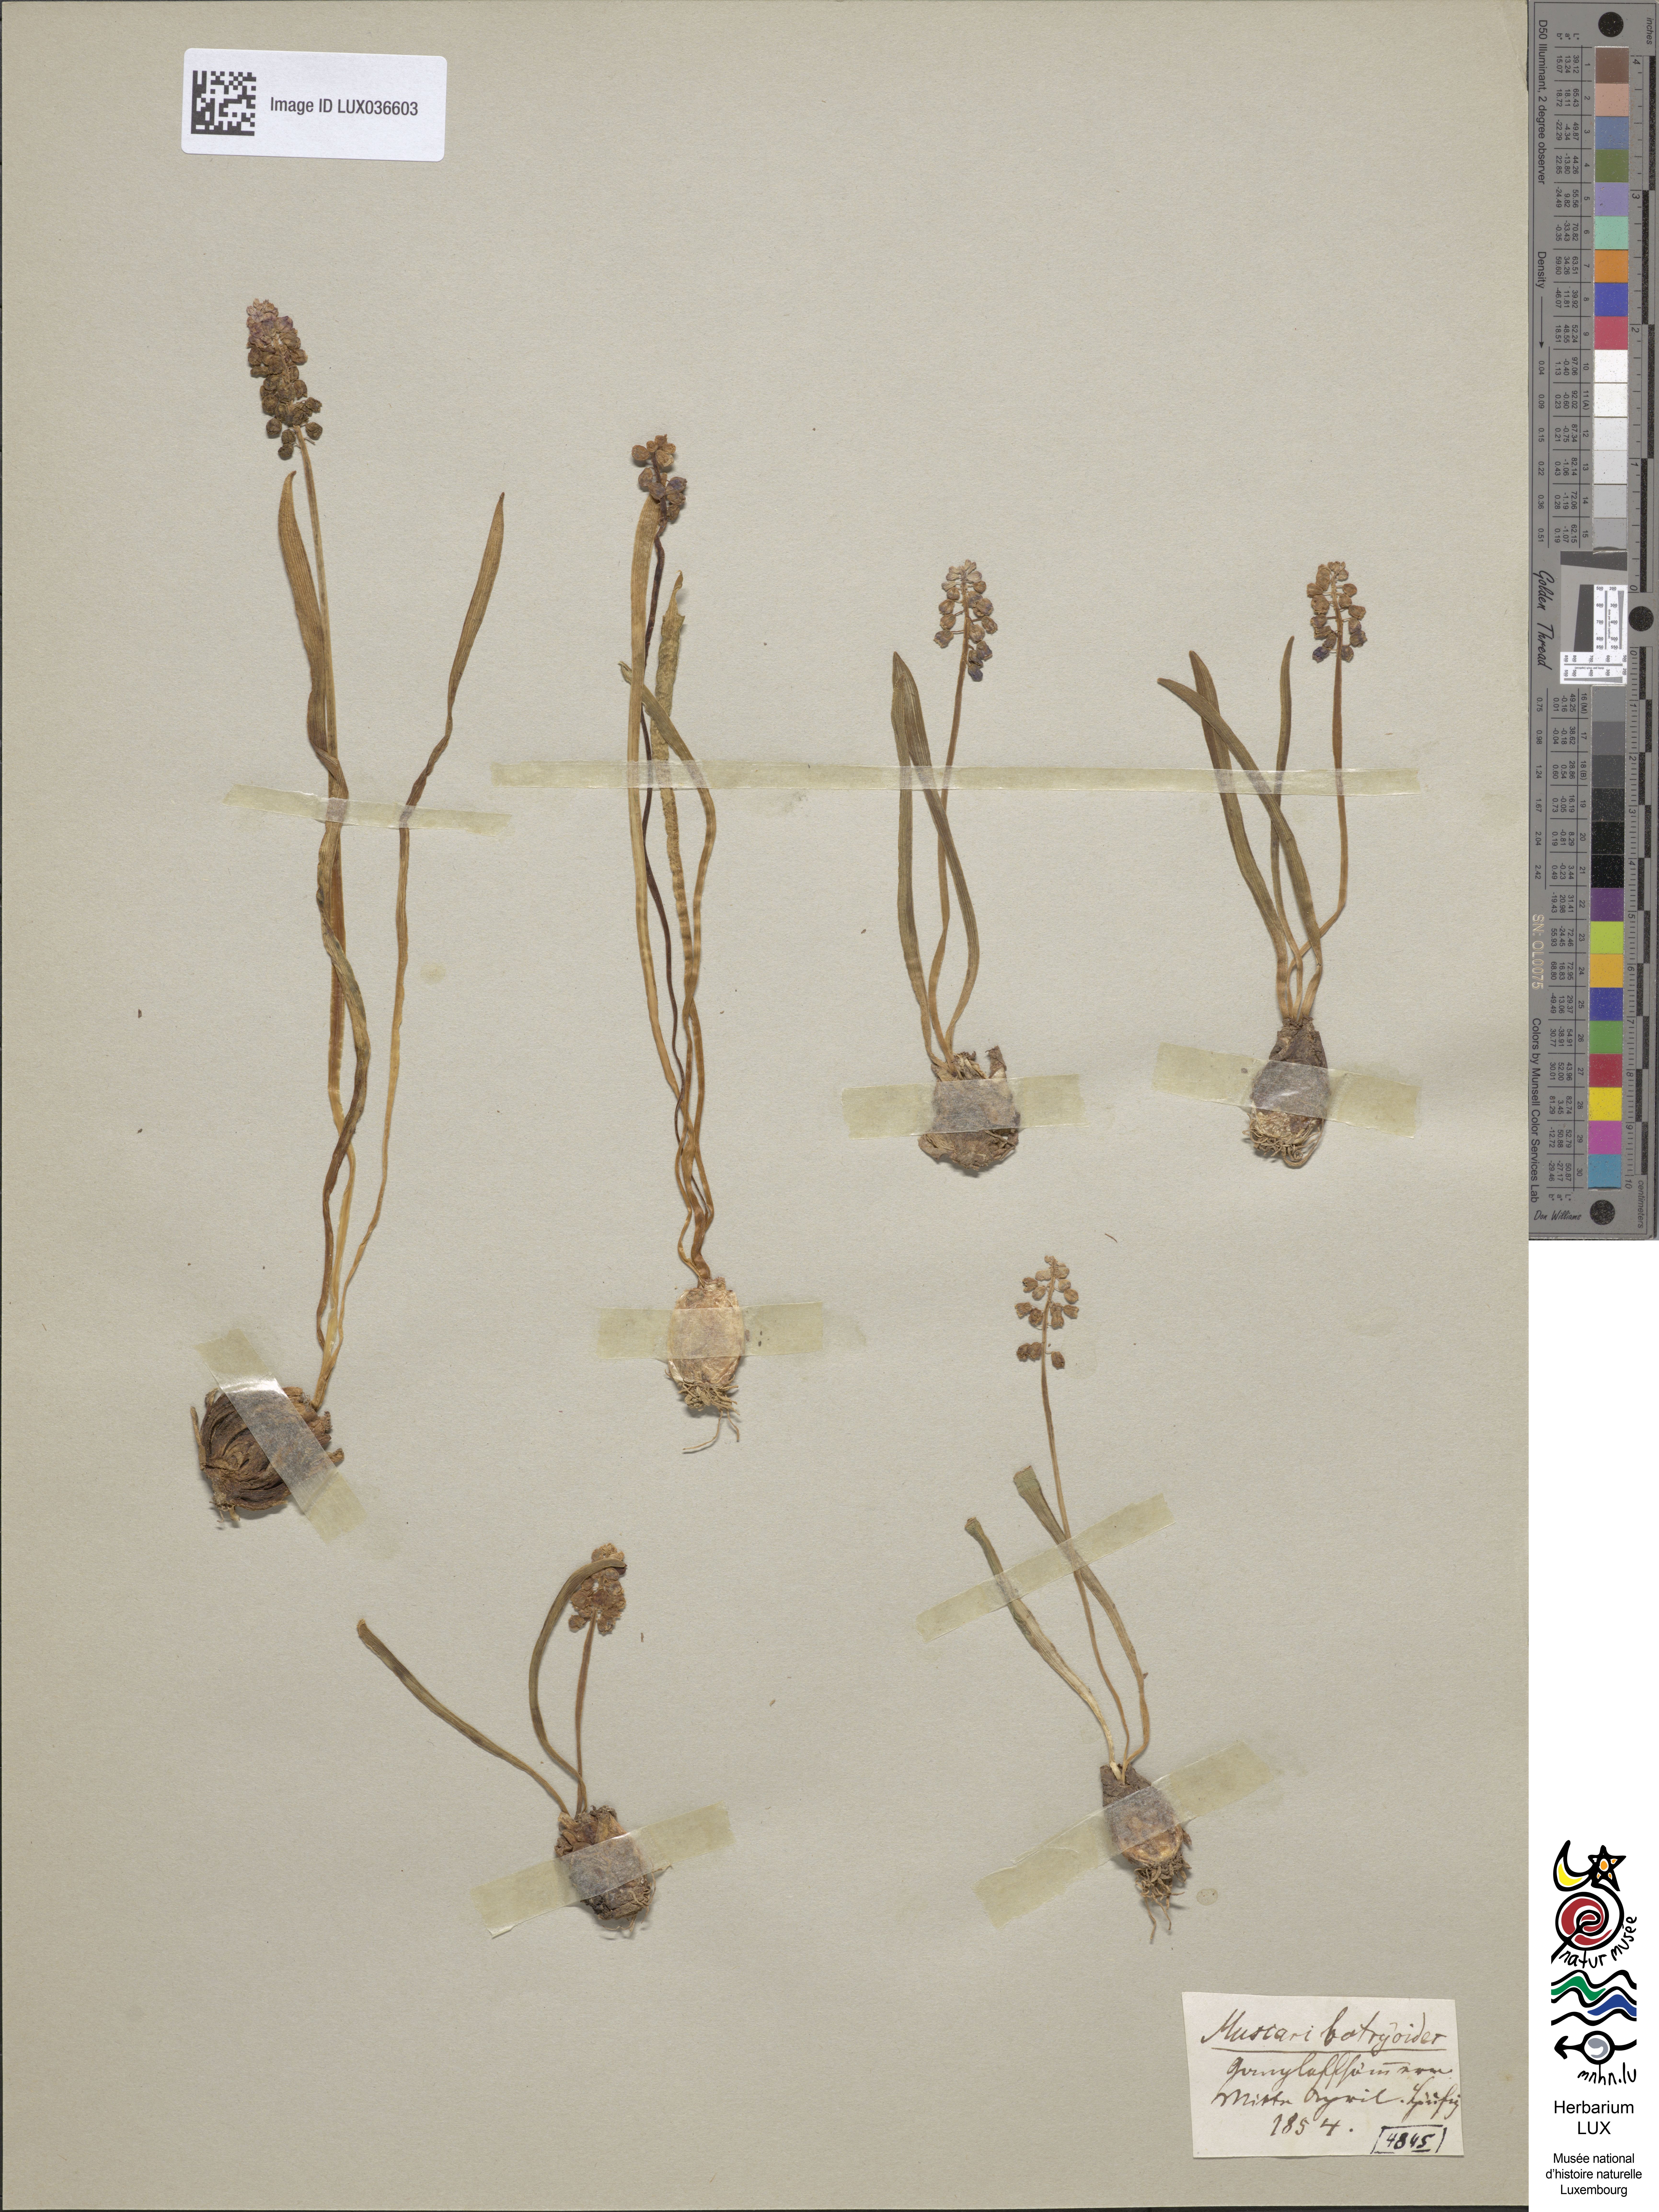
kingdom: Plantae
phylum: Tracheophyta
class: Liliopsida
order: Asparagales
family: Asparagaceae
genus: Muscari
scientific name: Muscari botryoides
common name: Compact grape-hyacinth
